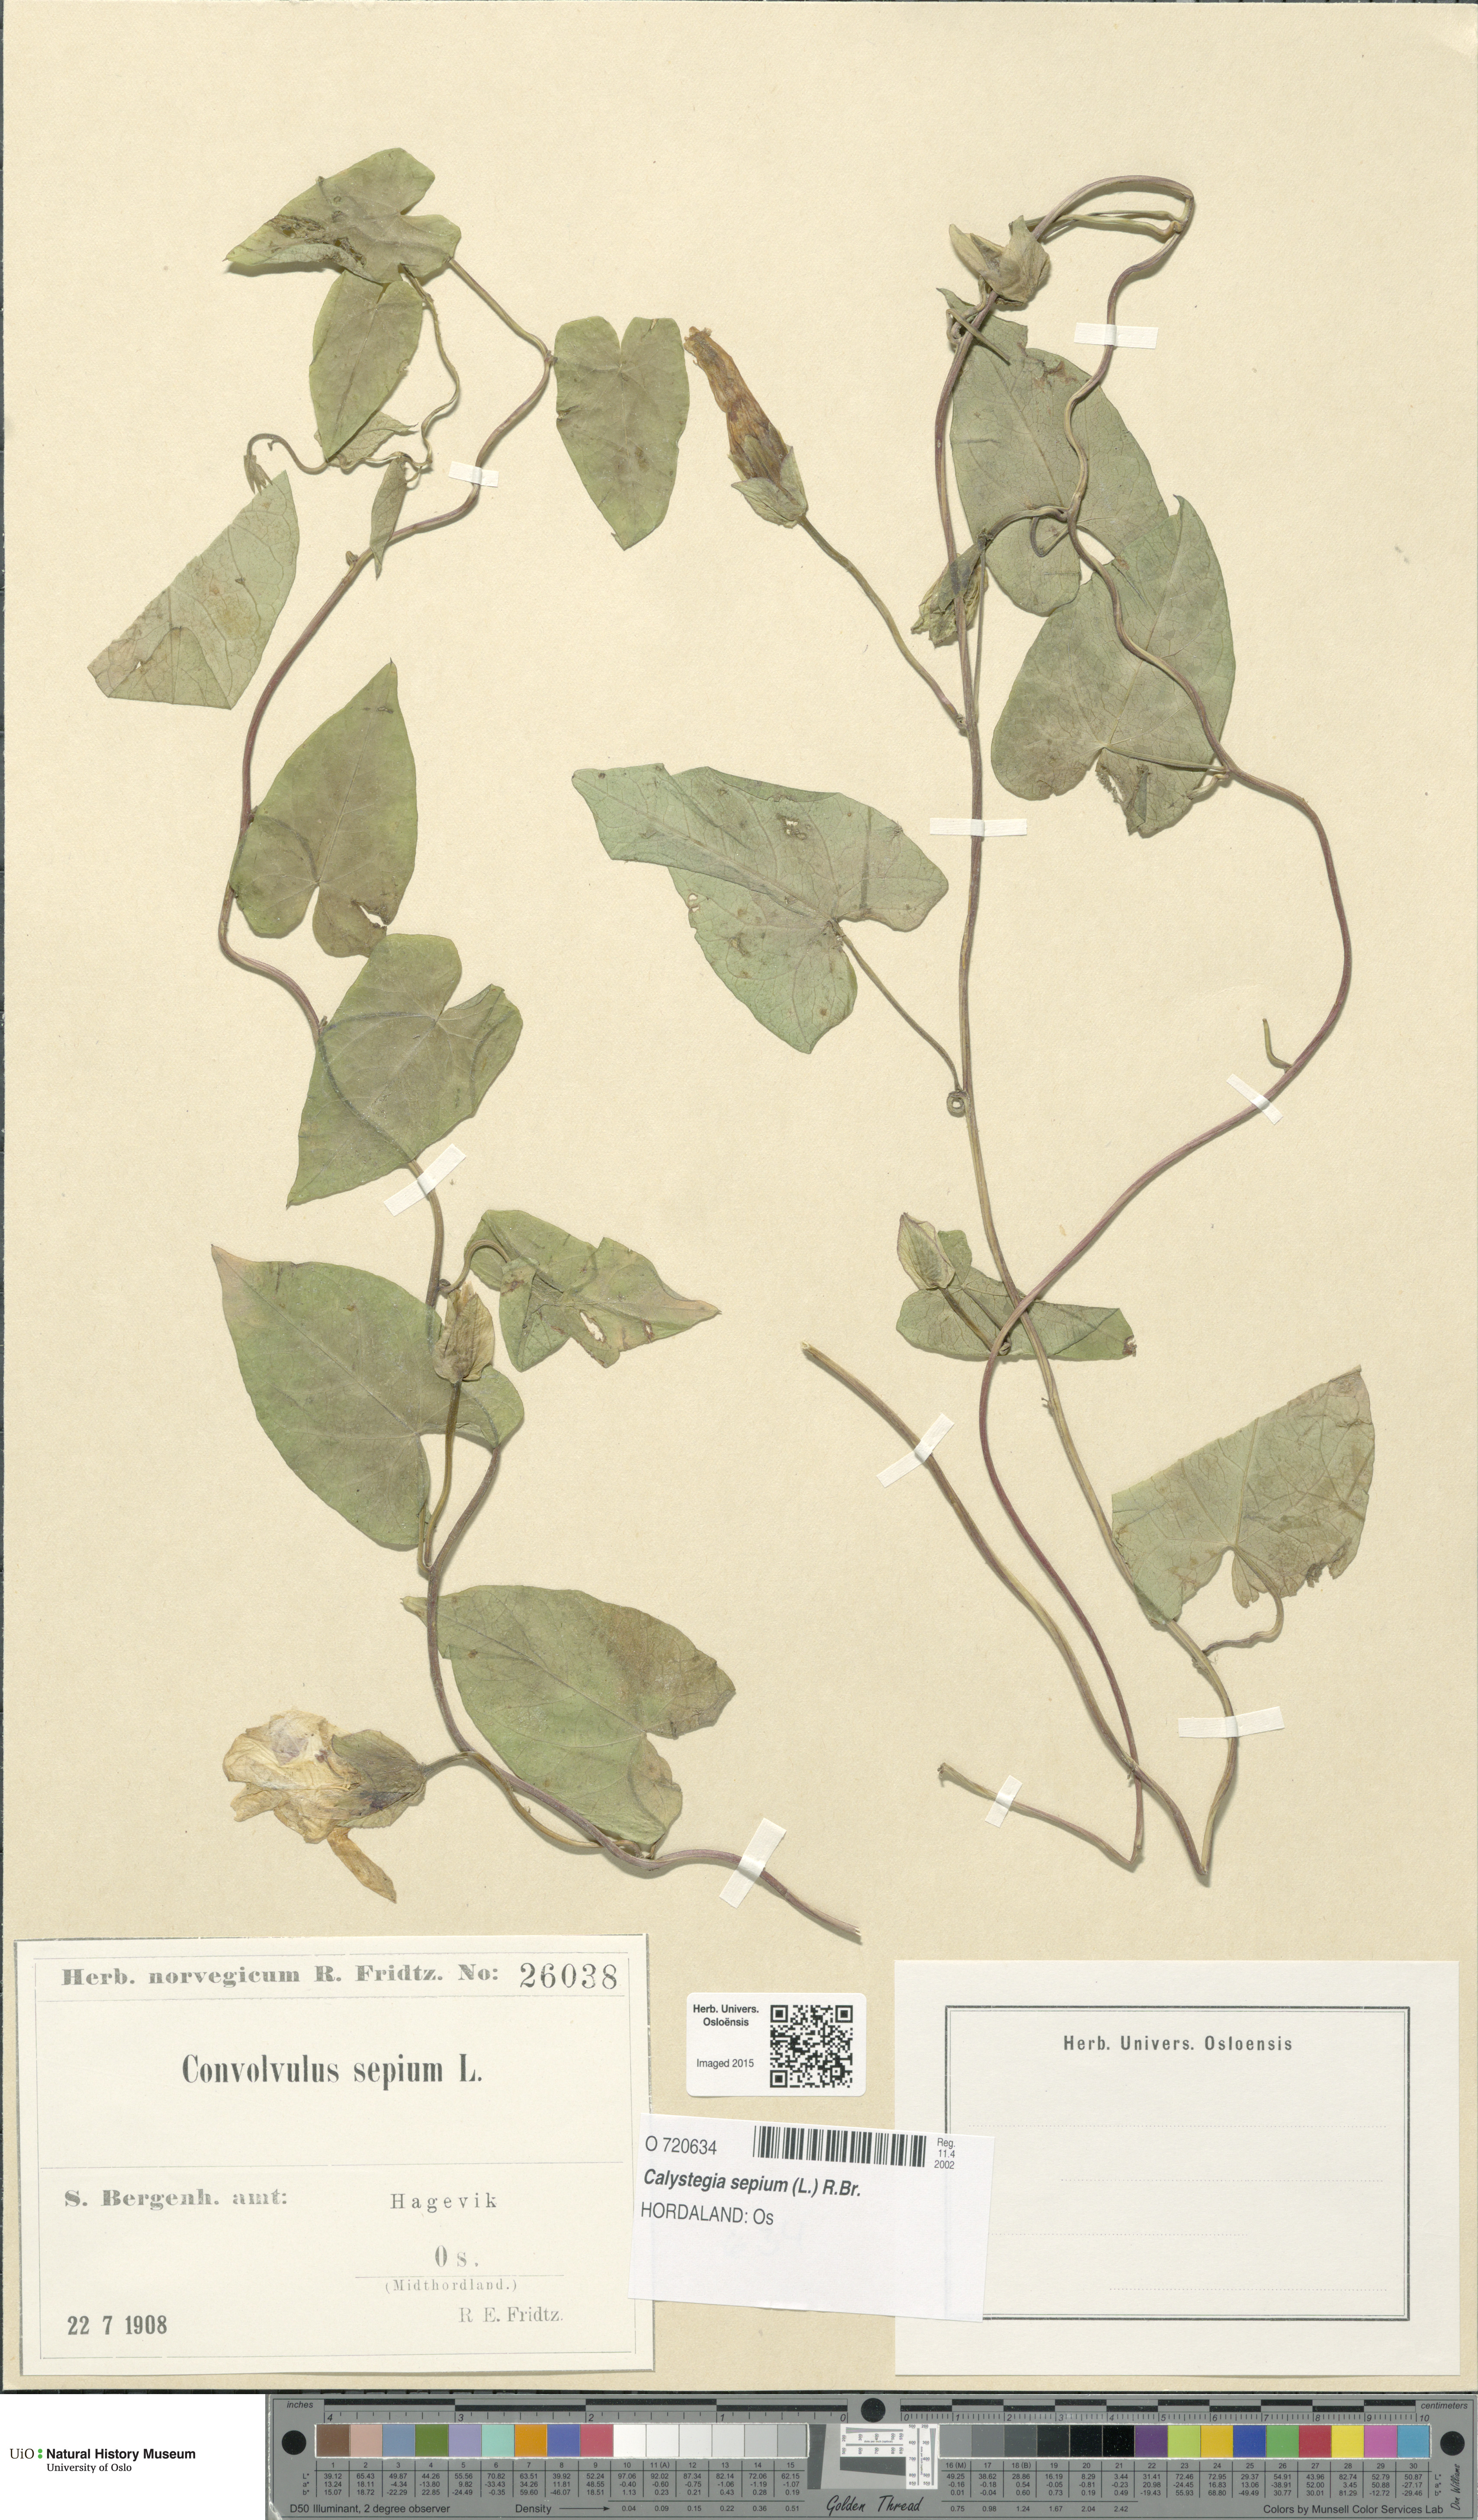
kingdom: Plantae
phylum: Tracheophyta
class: Magnoliopsida
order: Solanales
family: Convolvulaceae
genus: Calystegia
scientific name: Calystegia sepium
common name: Hedge bindweed
